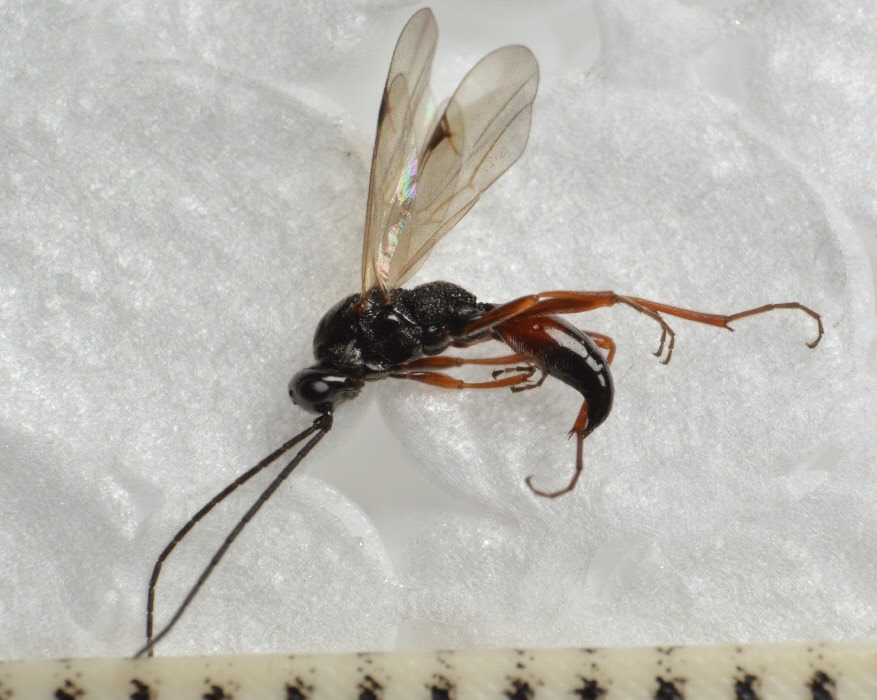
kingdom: Animalia
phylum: Arthropoda
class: Insecta
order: Hymenoptera
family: Proctotrupidae
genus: Proctotrupes
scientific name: Proctotrupes gravidator
